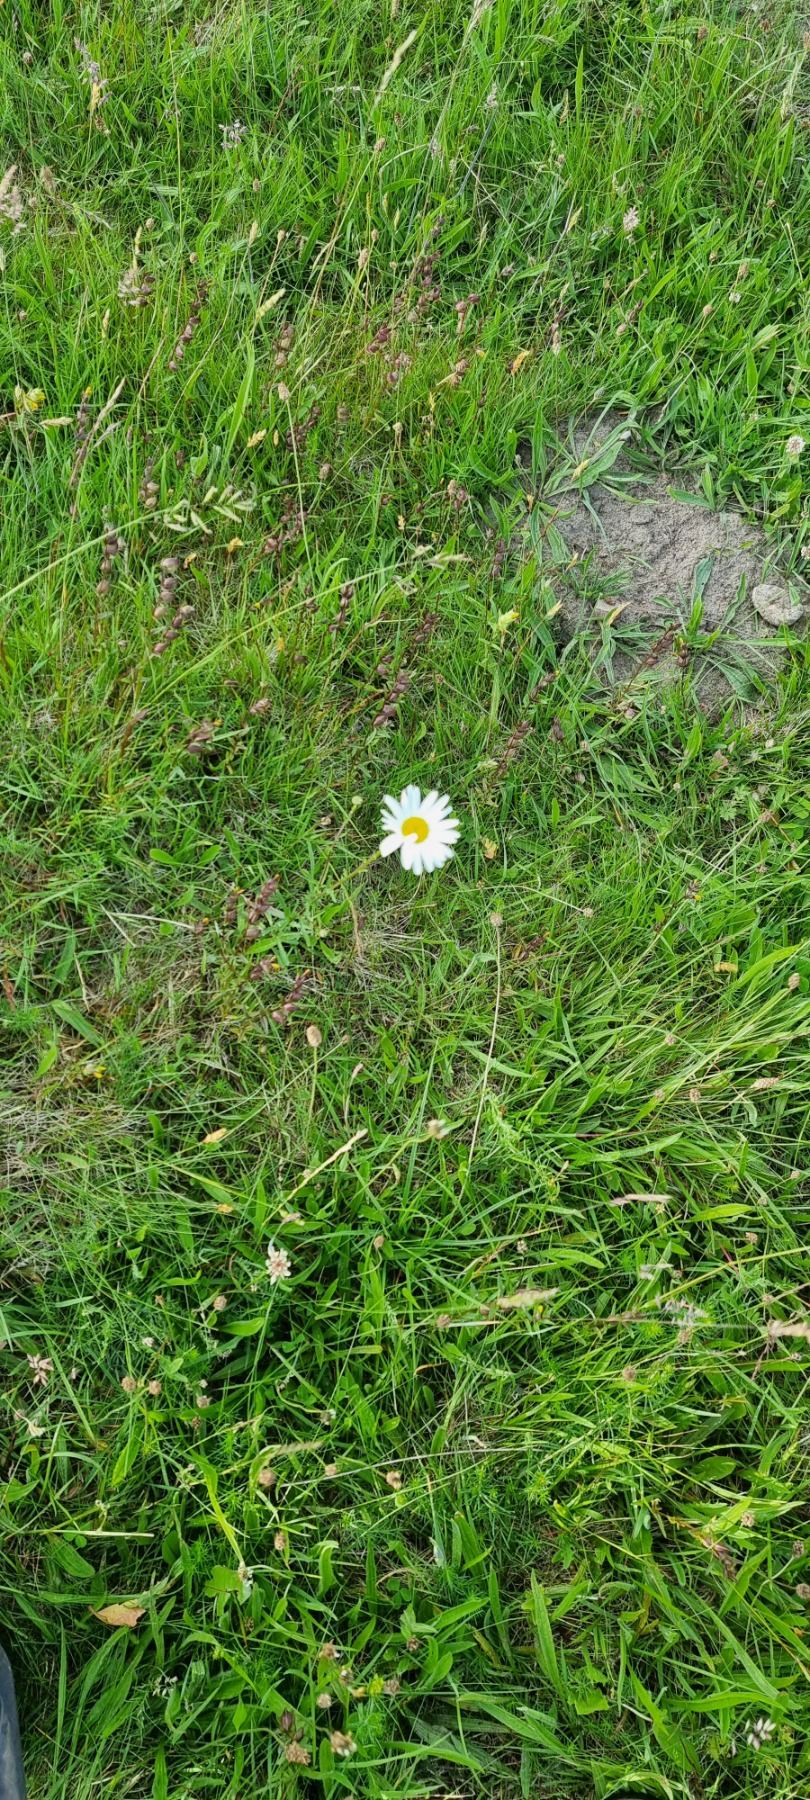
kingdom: Plantae
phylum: Tracheophyta
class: Magnoliopsida
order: Asterales
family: Asteraceae
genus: Leucanthemum
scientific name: Leucanthemum vulgare
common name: Hvid okseøje
